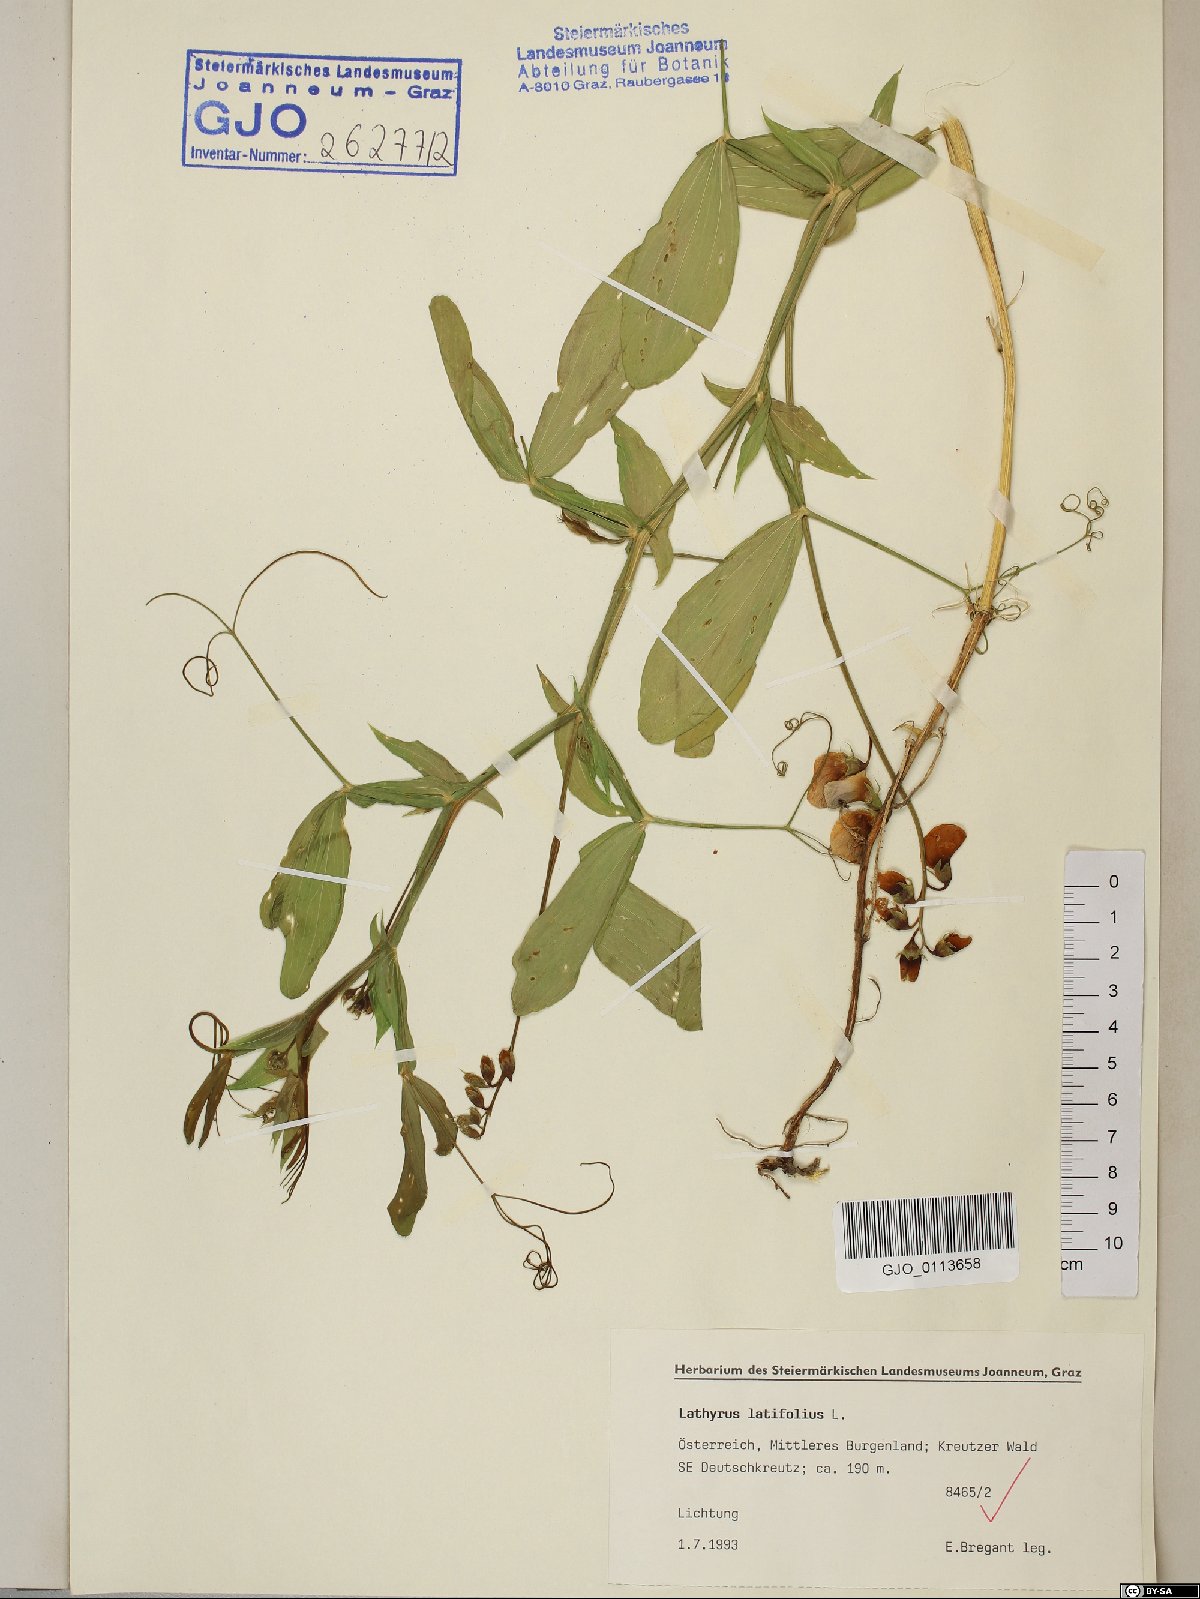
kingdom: Plantae
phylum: Tracheophyta
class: Magnoliopsida
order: Fabales
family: Fabaceae
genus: Lathyrus
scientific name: Lathyrus latifolius
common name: Perennial pea
